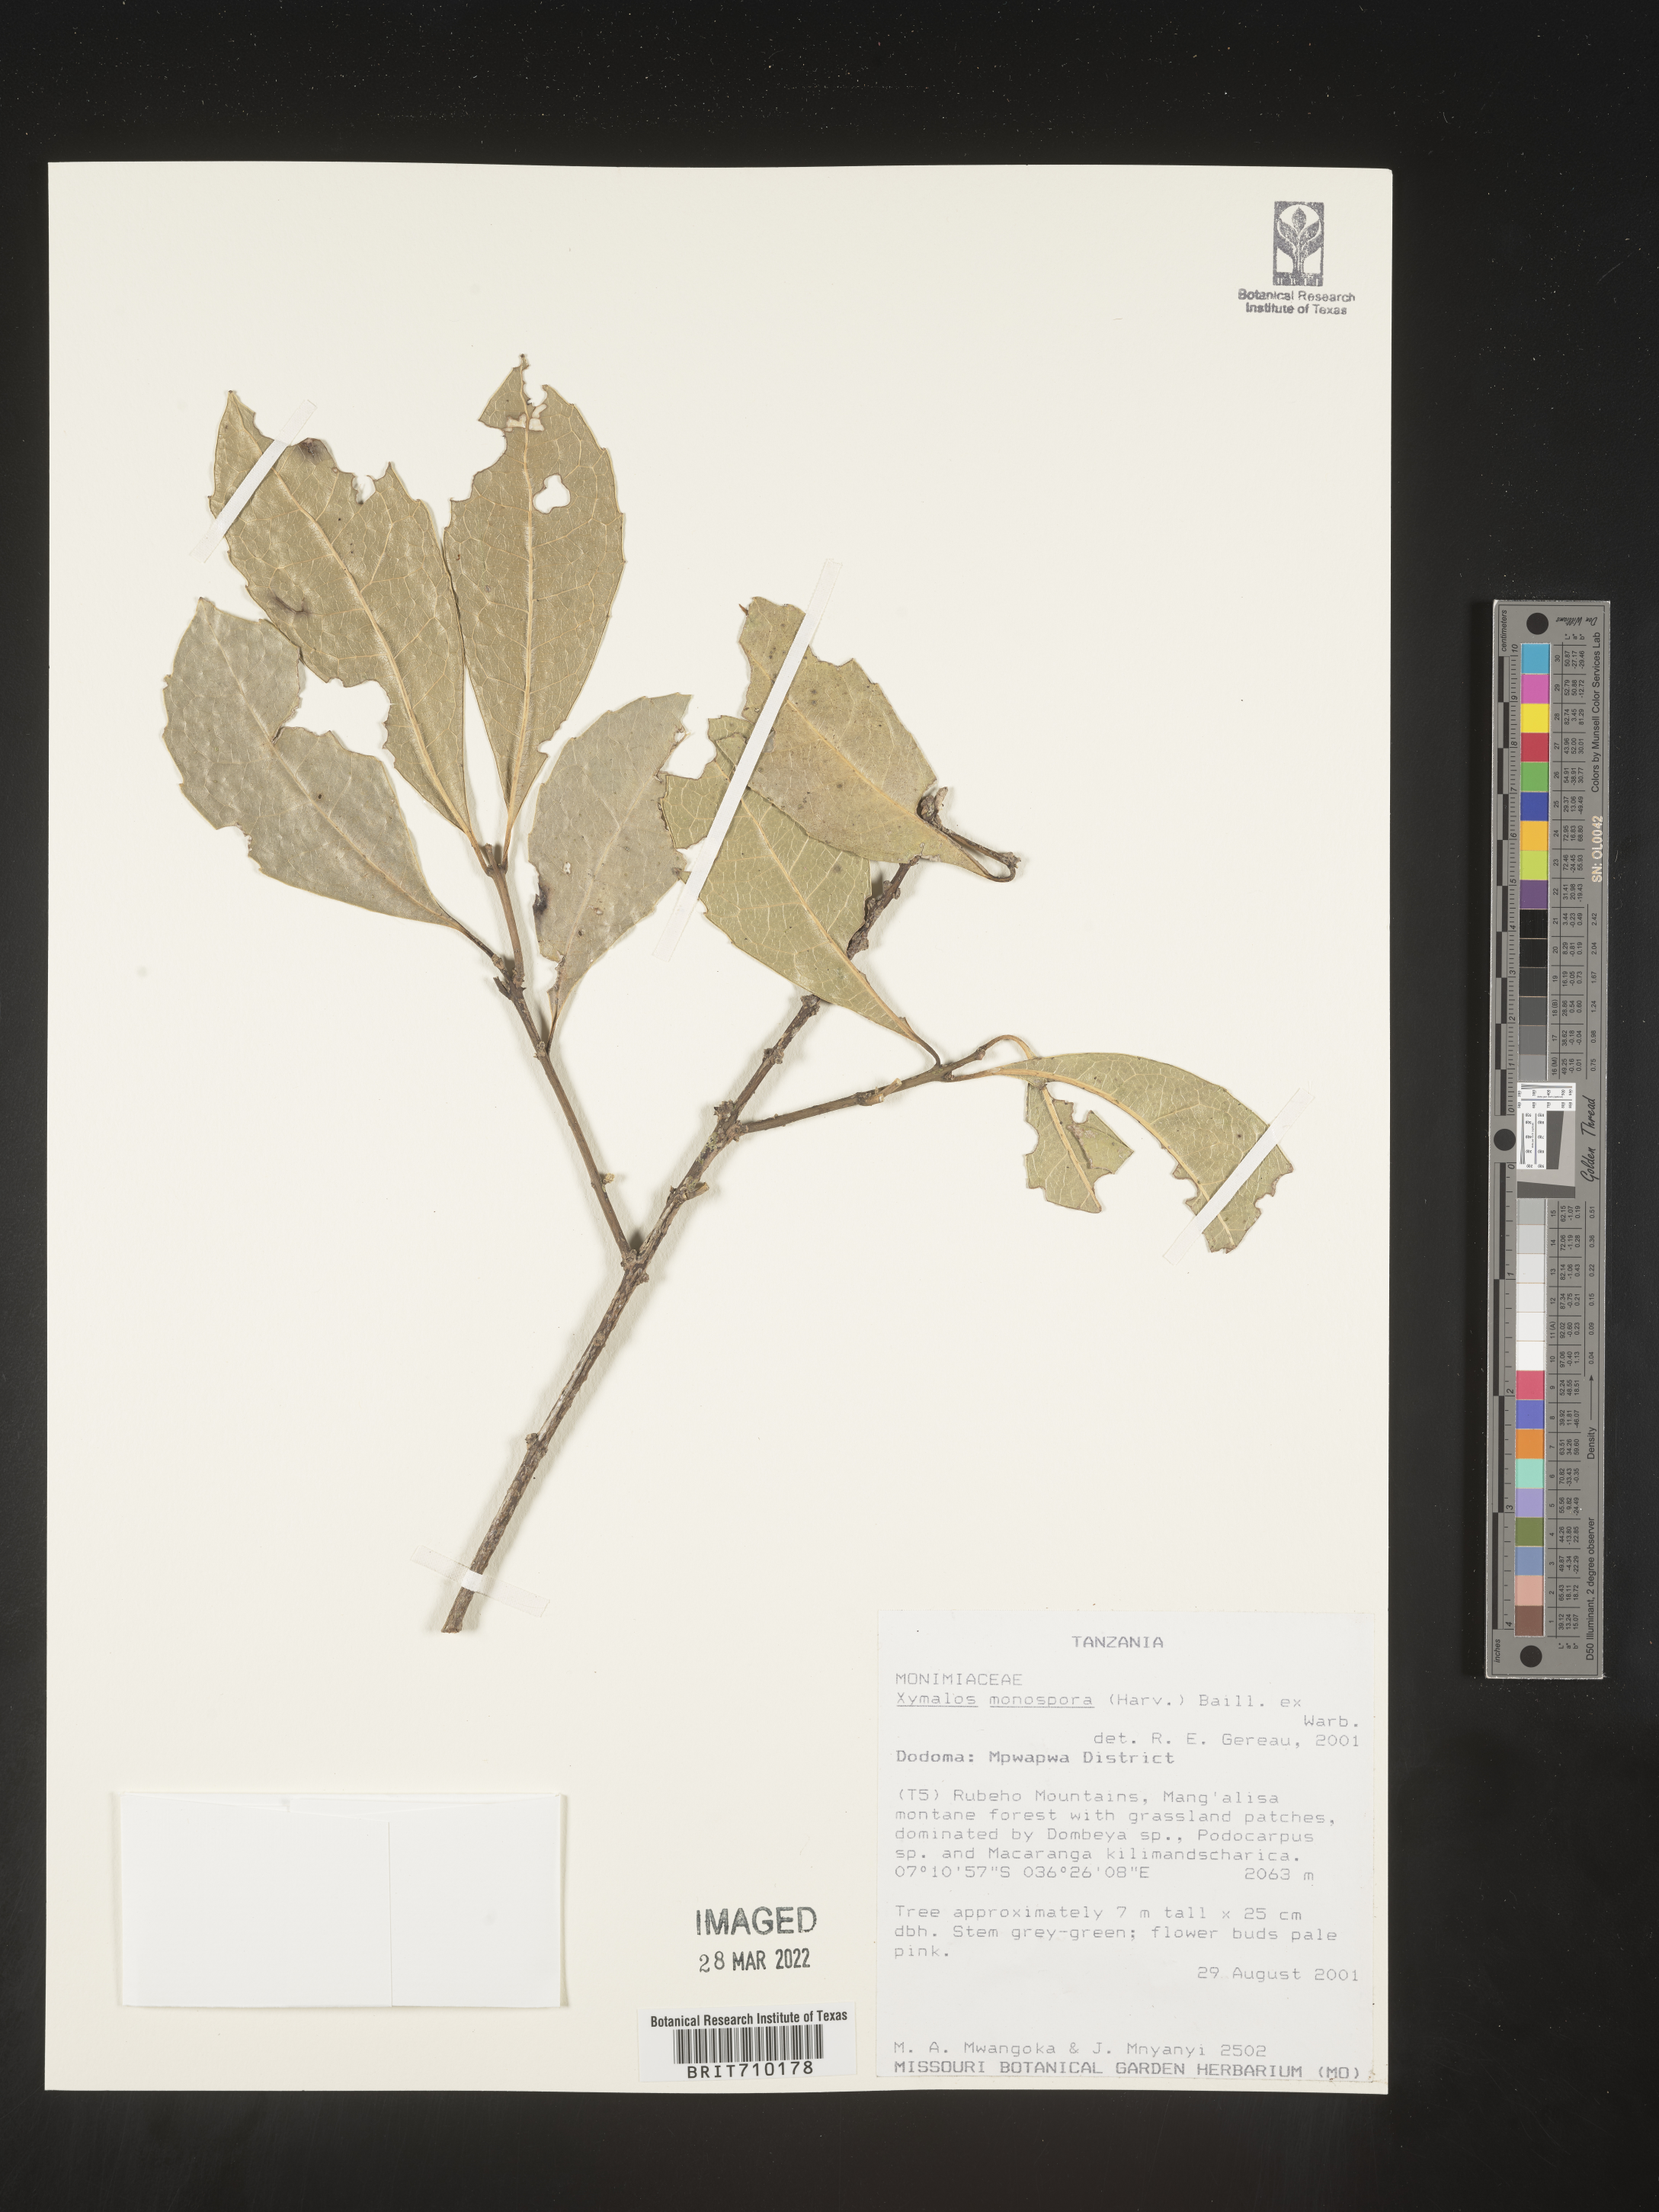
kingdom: Plantae
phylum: Tracheophyta
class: Magnoliopsida
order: Laurales
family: Monimiaceae
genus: Xymalos
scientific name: Xymalos
